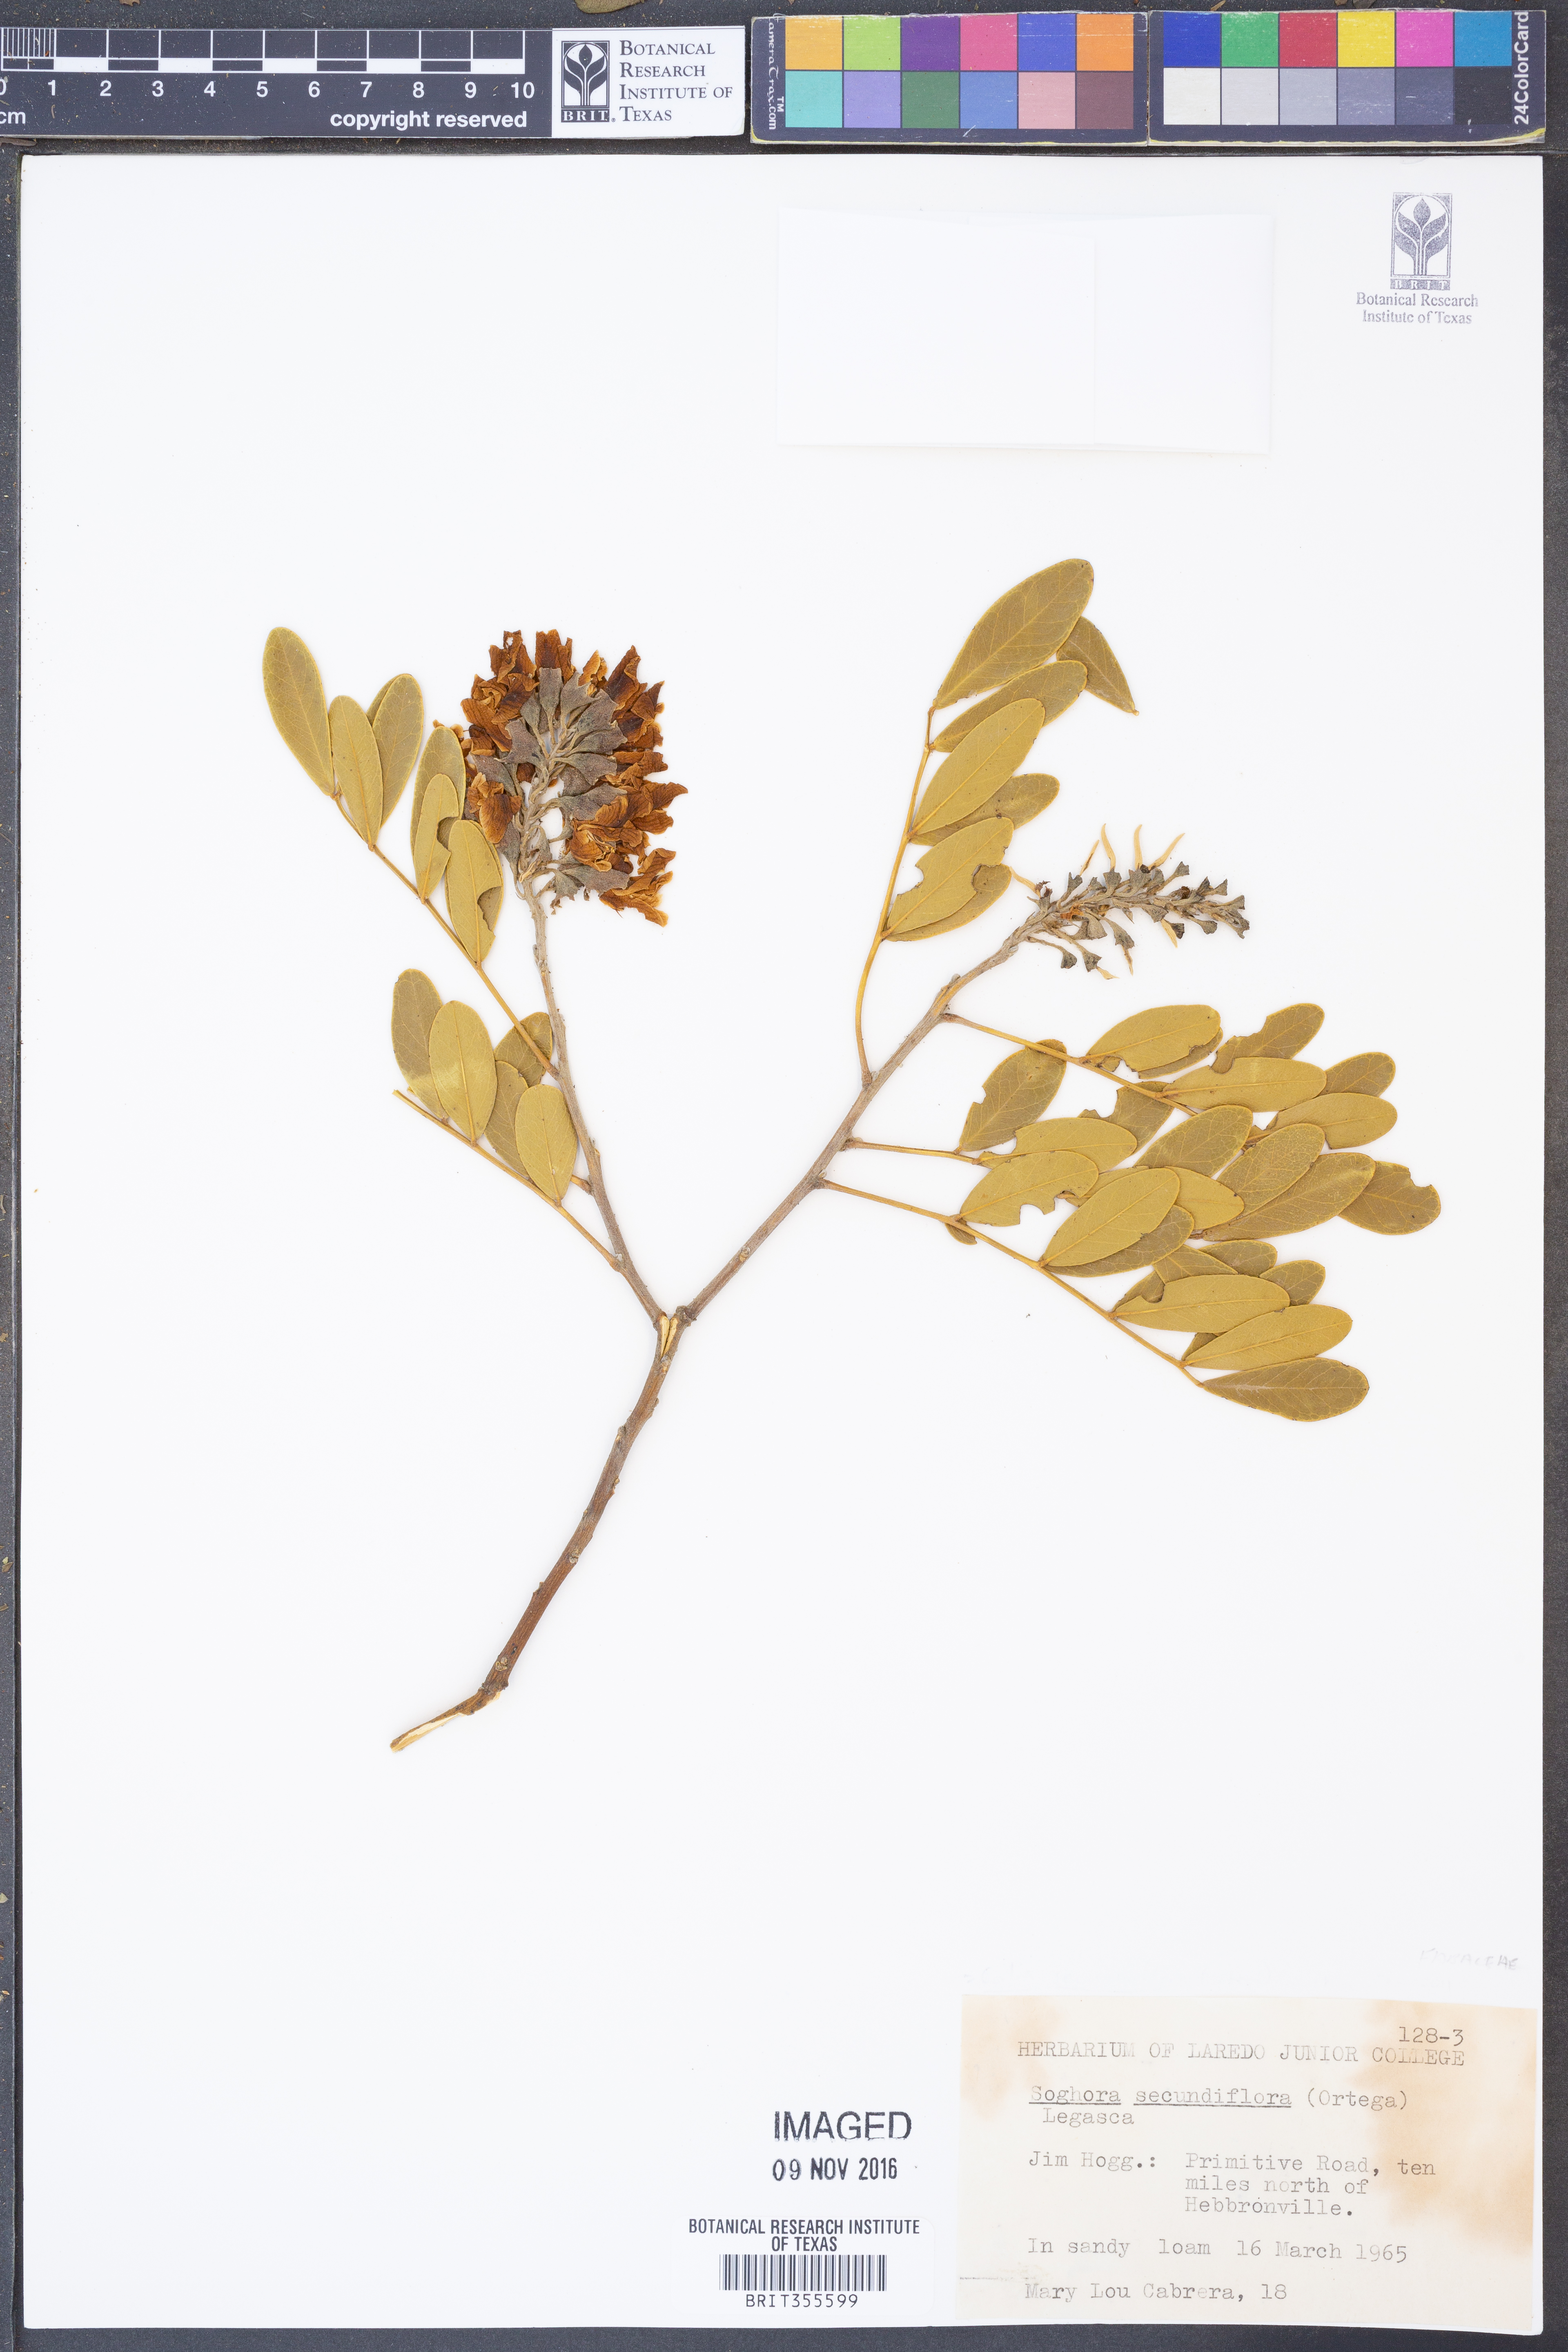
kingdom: Plantae
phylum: Tracheophyta
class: Magnoliopsida
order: Fabales
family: Fabaceae
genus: Dermatophyllum
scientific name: Dermatophyllum secundiflorum
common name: Texas-mountain-laurel
